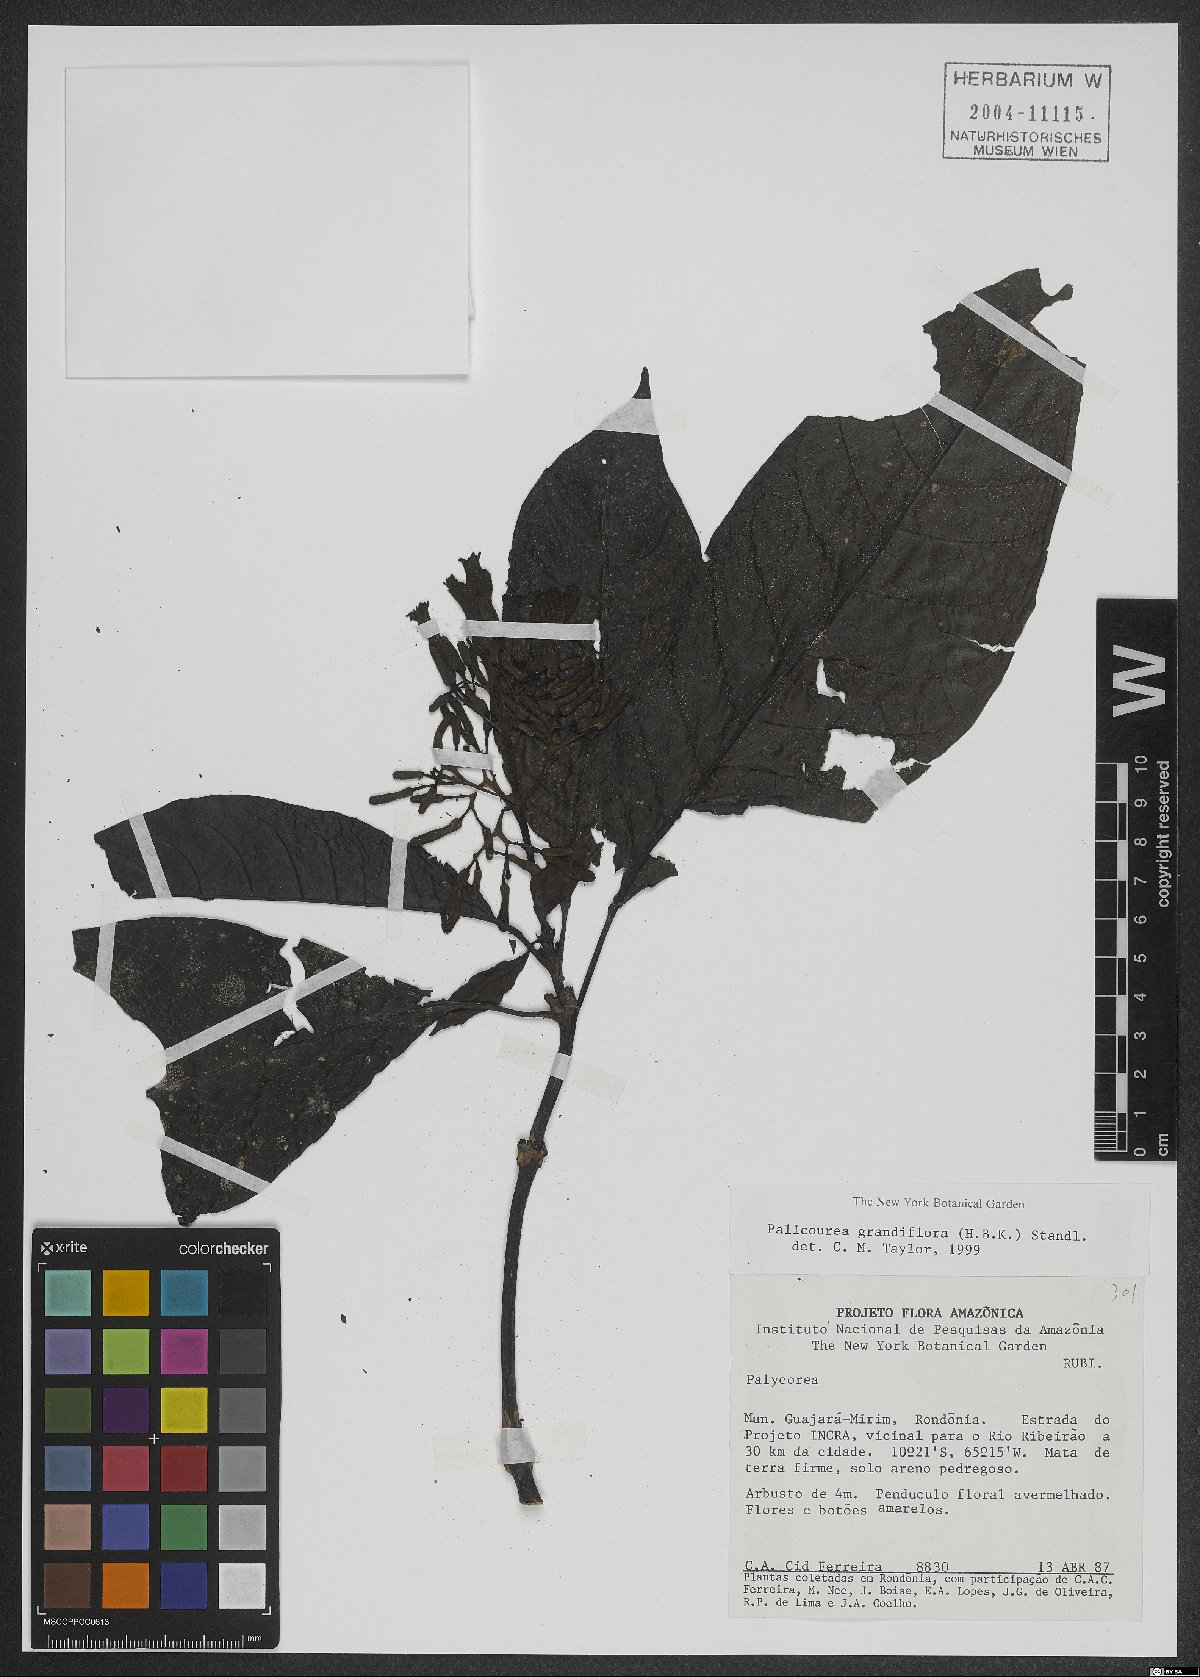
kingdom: Plantae
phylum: Tracheophyta
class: Magnoliopsida
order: Gentianales
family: Rubiaceae
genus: Palicourea
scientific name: Palicourea grandifolia
